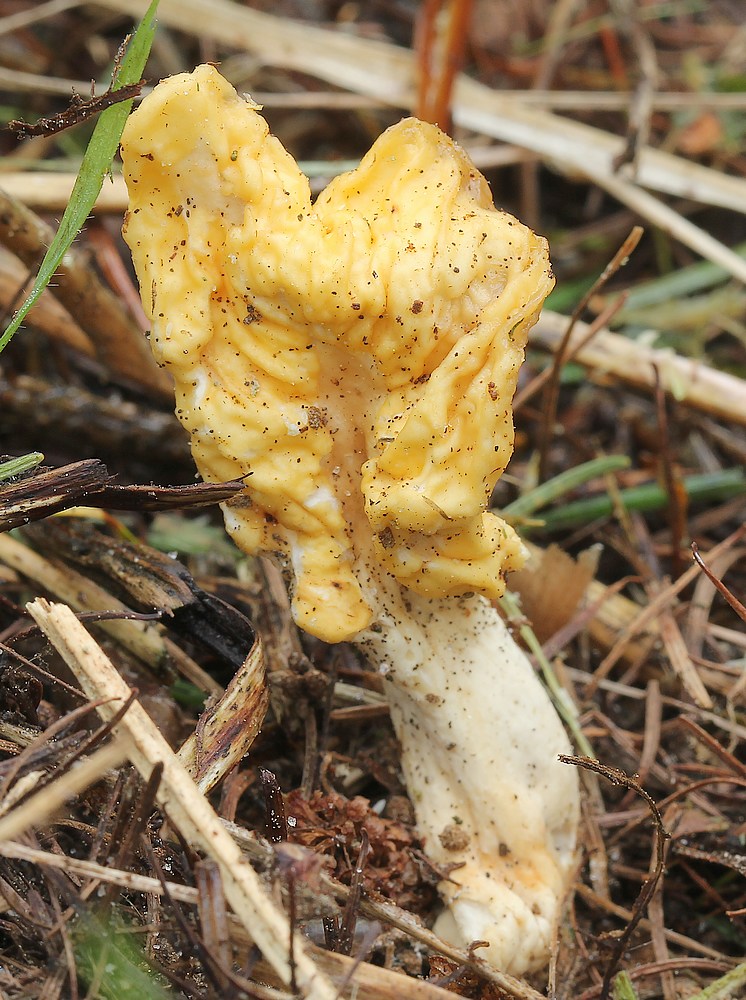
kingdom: Fungi
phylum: Ascomycota
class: Leotiomycetes
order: Rhytismatales
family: Cudoniaceae
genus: Spathularia
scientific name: Spathularia flavida
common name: gul spatelsvamp
